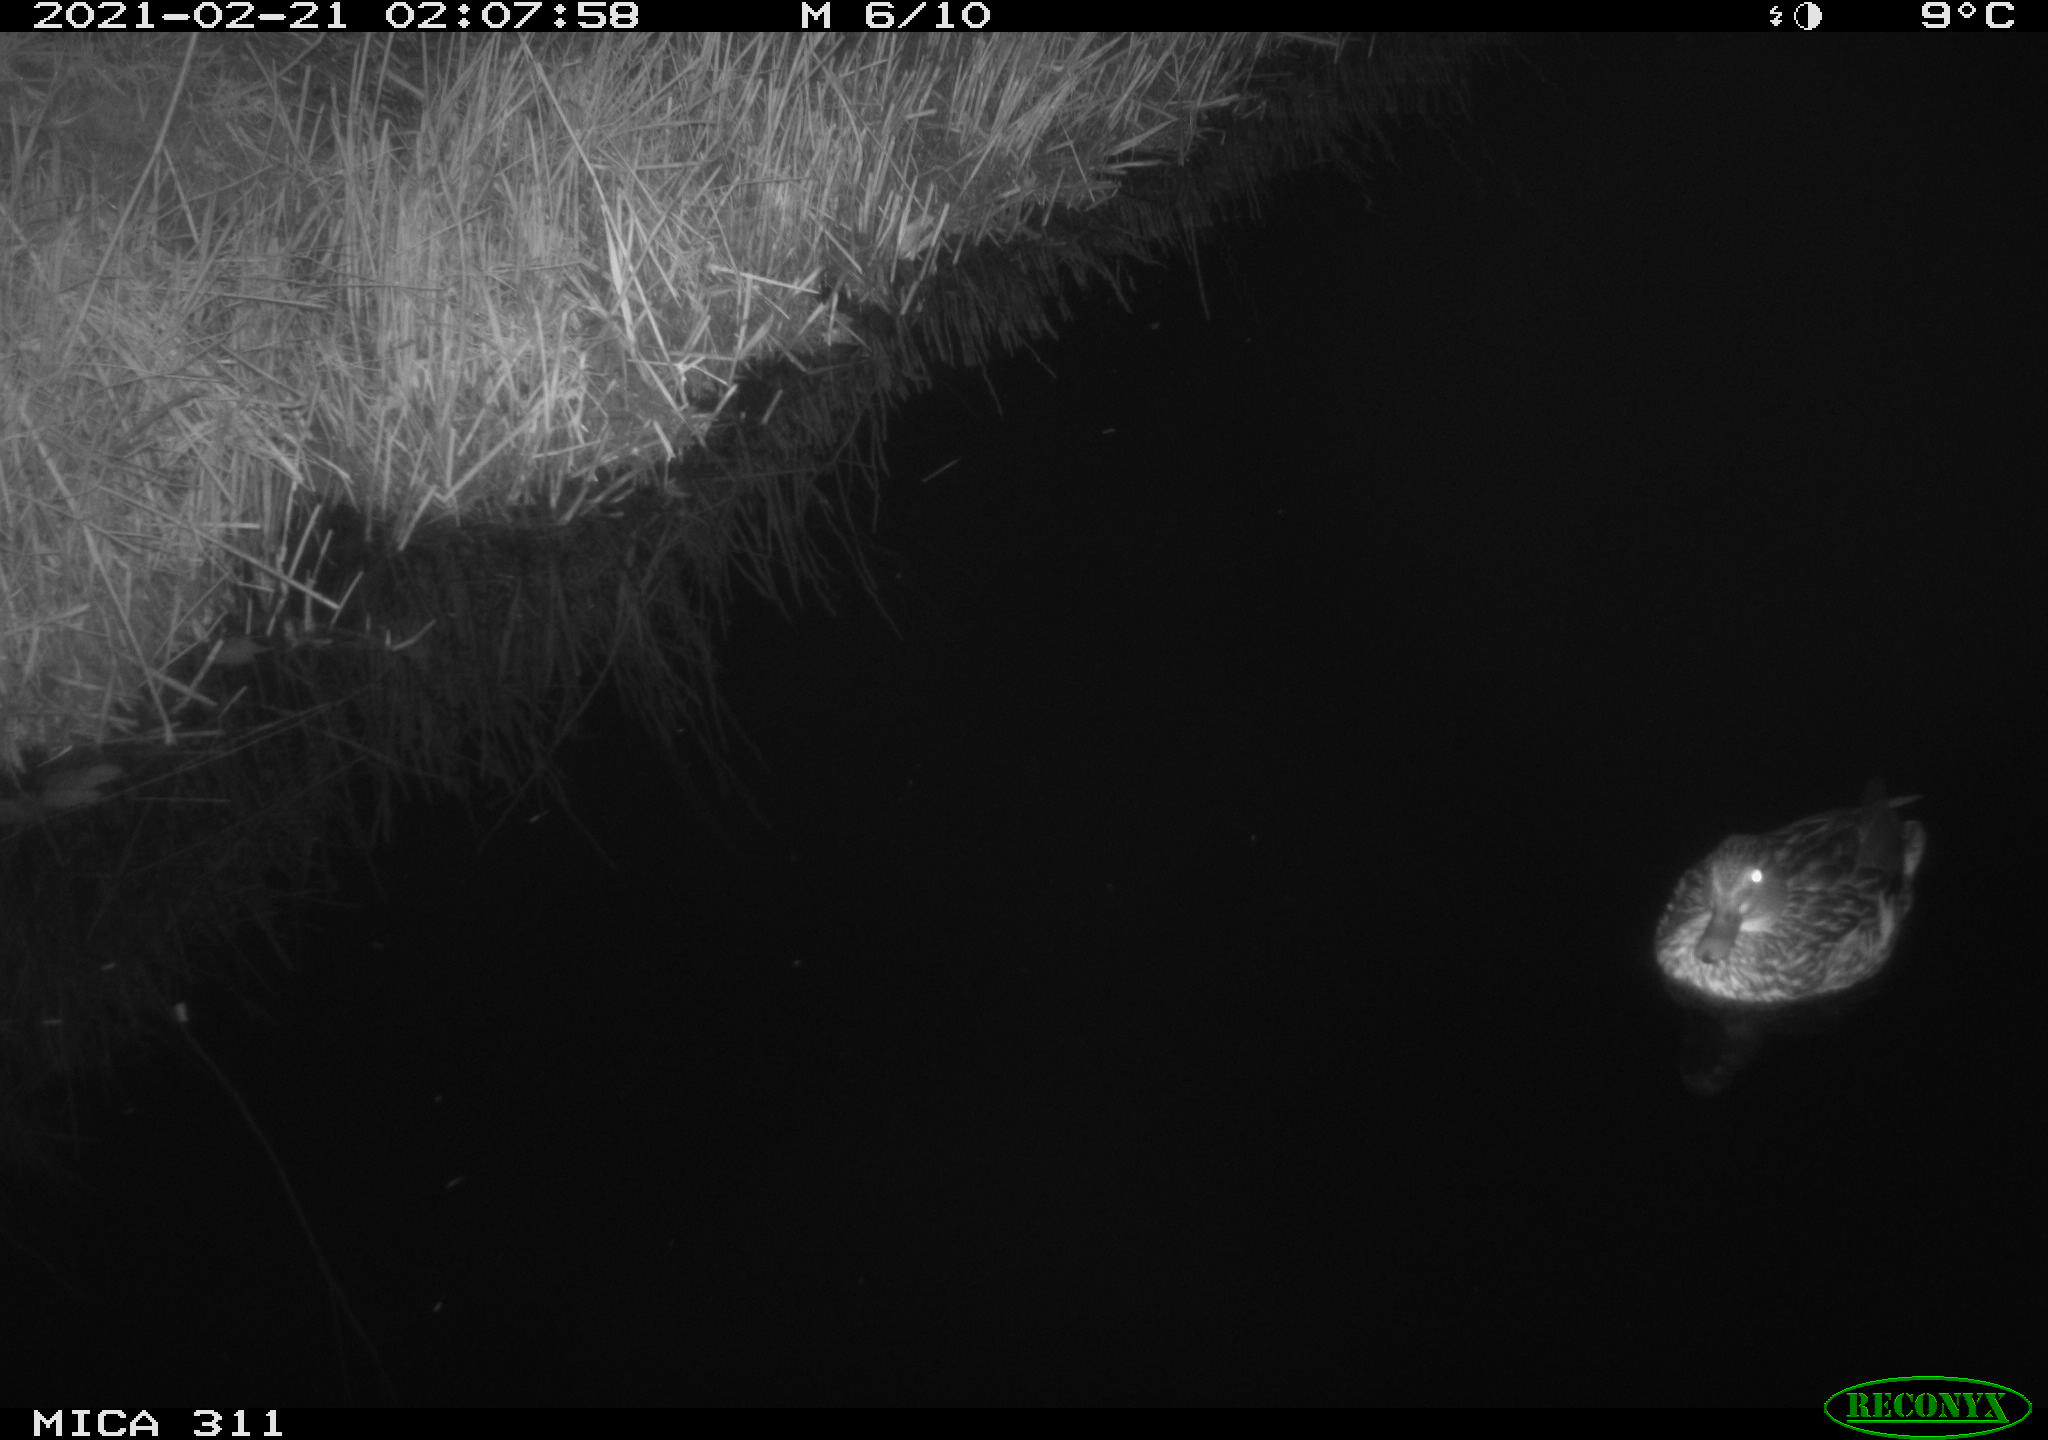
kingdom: Animalia
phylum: Chordata
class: Aves
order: Anseriformes
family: Anatidae
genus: Anas
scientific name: Anas platyrhynchos
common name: Mallard
